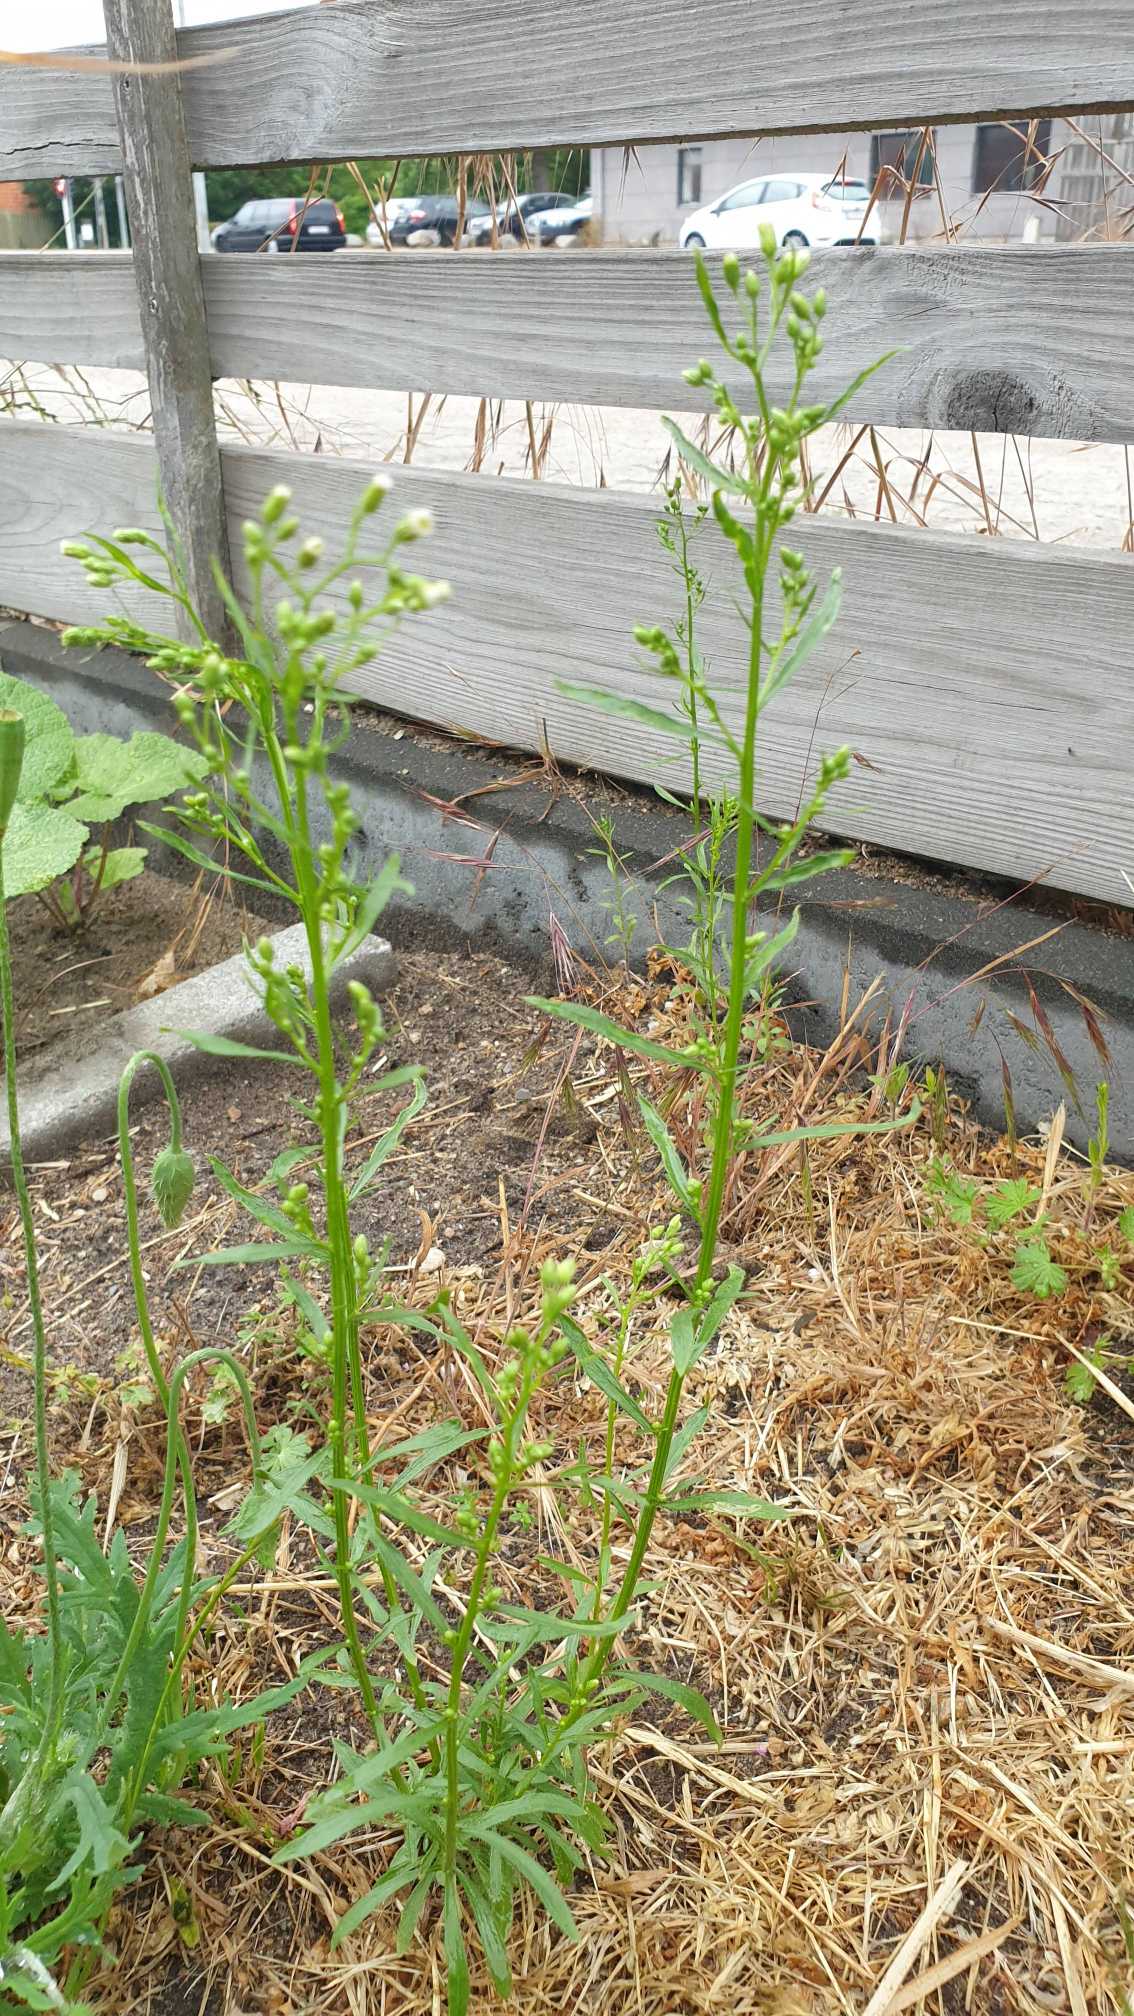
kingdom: Plantae
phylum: Tracheophyta
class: Magnoliopsida
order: Asterales
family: Asteraceae
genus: Erigeron
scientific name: Erigeron canadensis
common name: Kanadisk bakkestjerne
